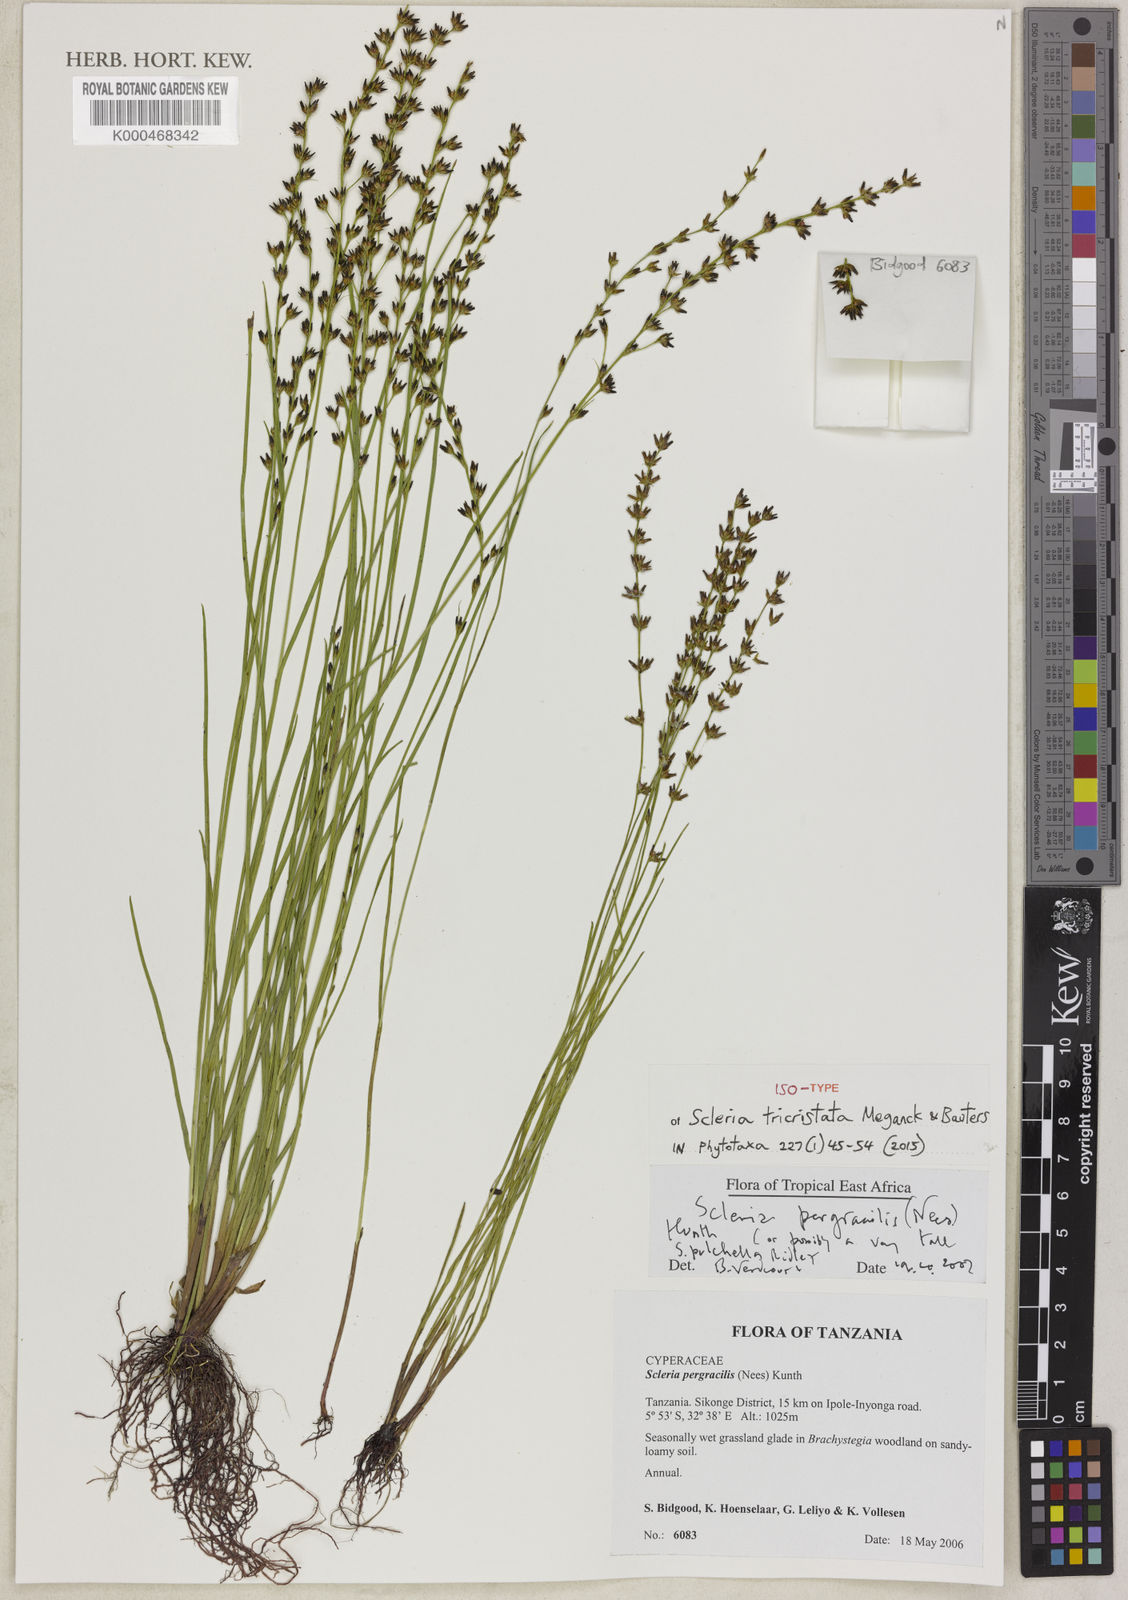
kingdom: Plantae
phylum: Tracheophyta
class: Liliopsida
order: Poales
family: Cyperaceae
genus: Scleria
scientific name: Scleria tricristata
